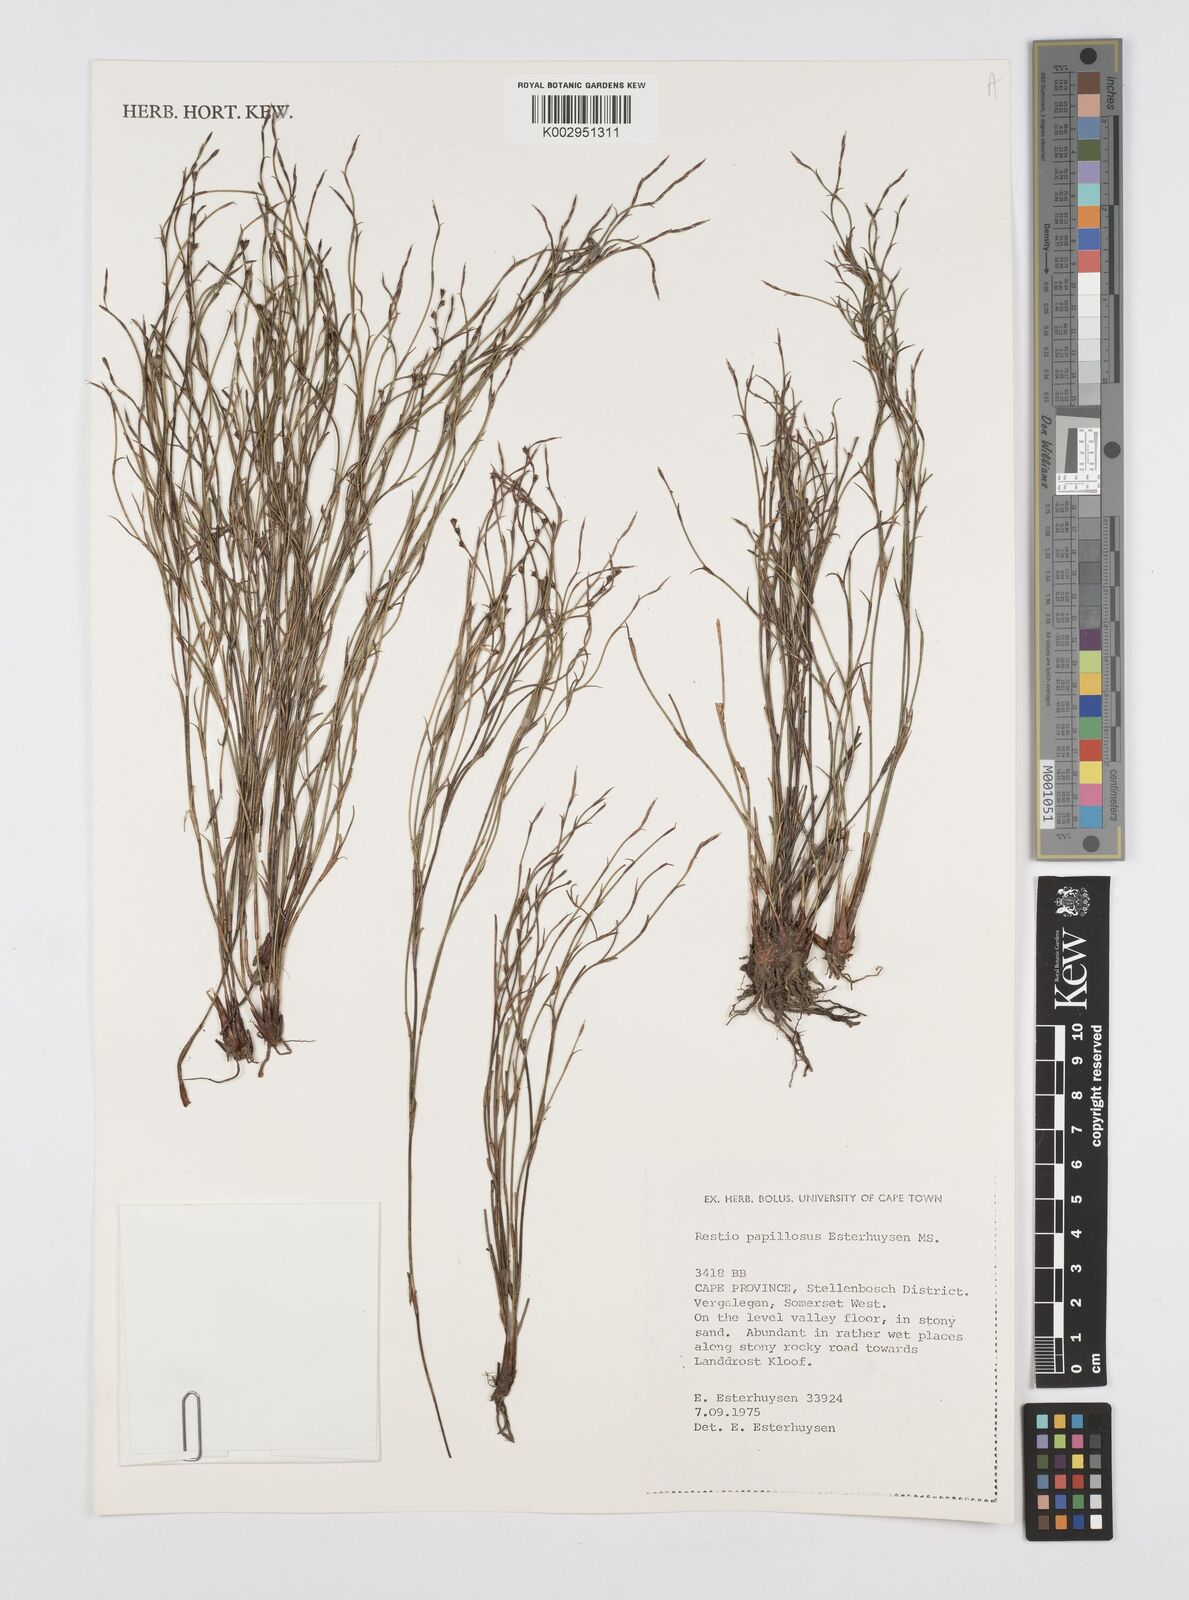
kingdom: Plantae
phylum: Tracheophyta
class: Liliopsida
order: Poales
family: Restionaceae
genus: Restio
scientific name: Restio papillosus
